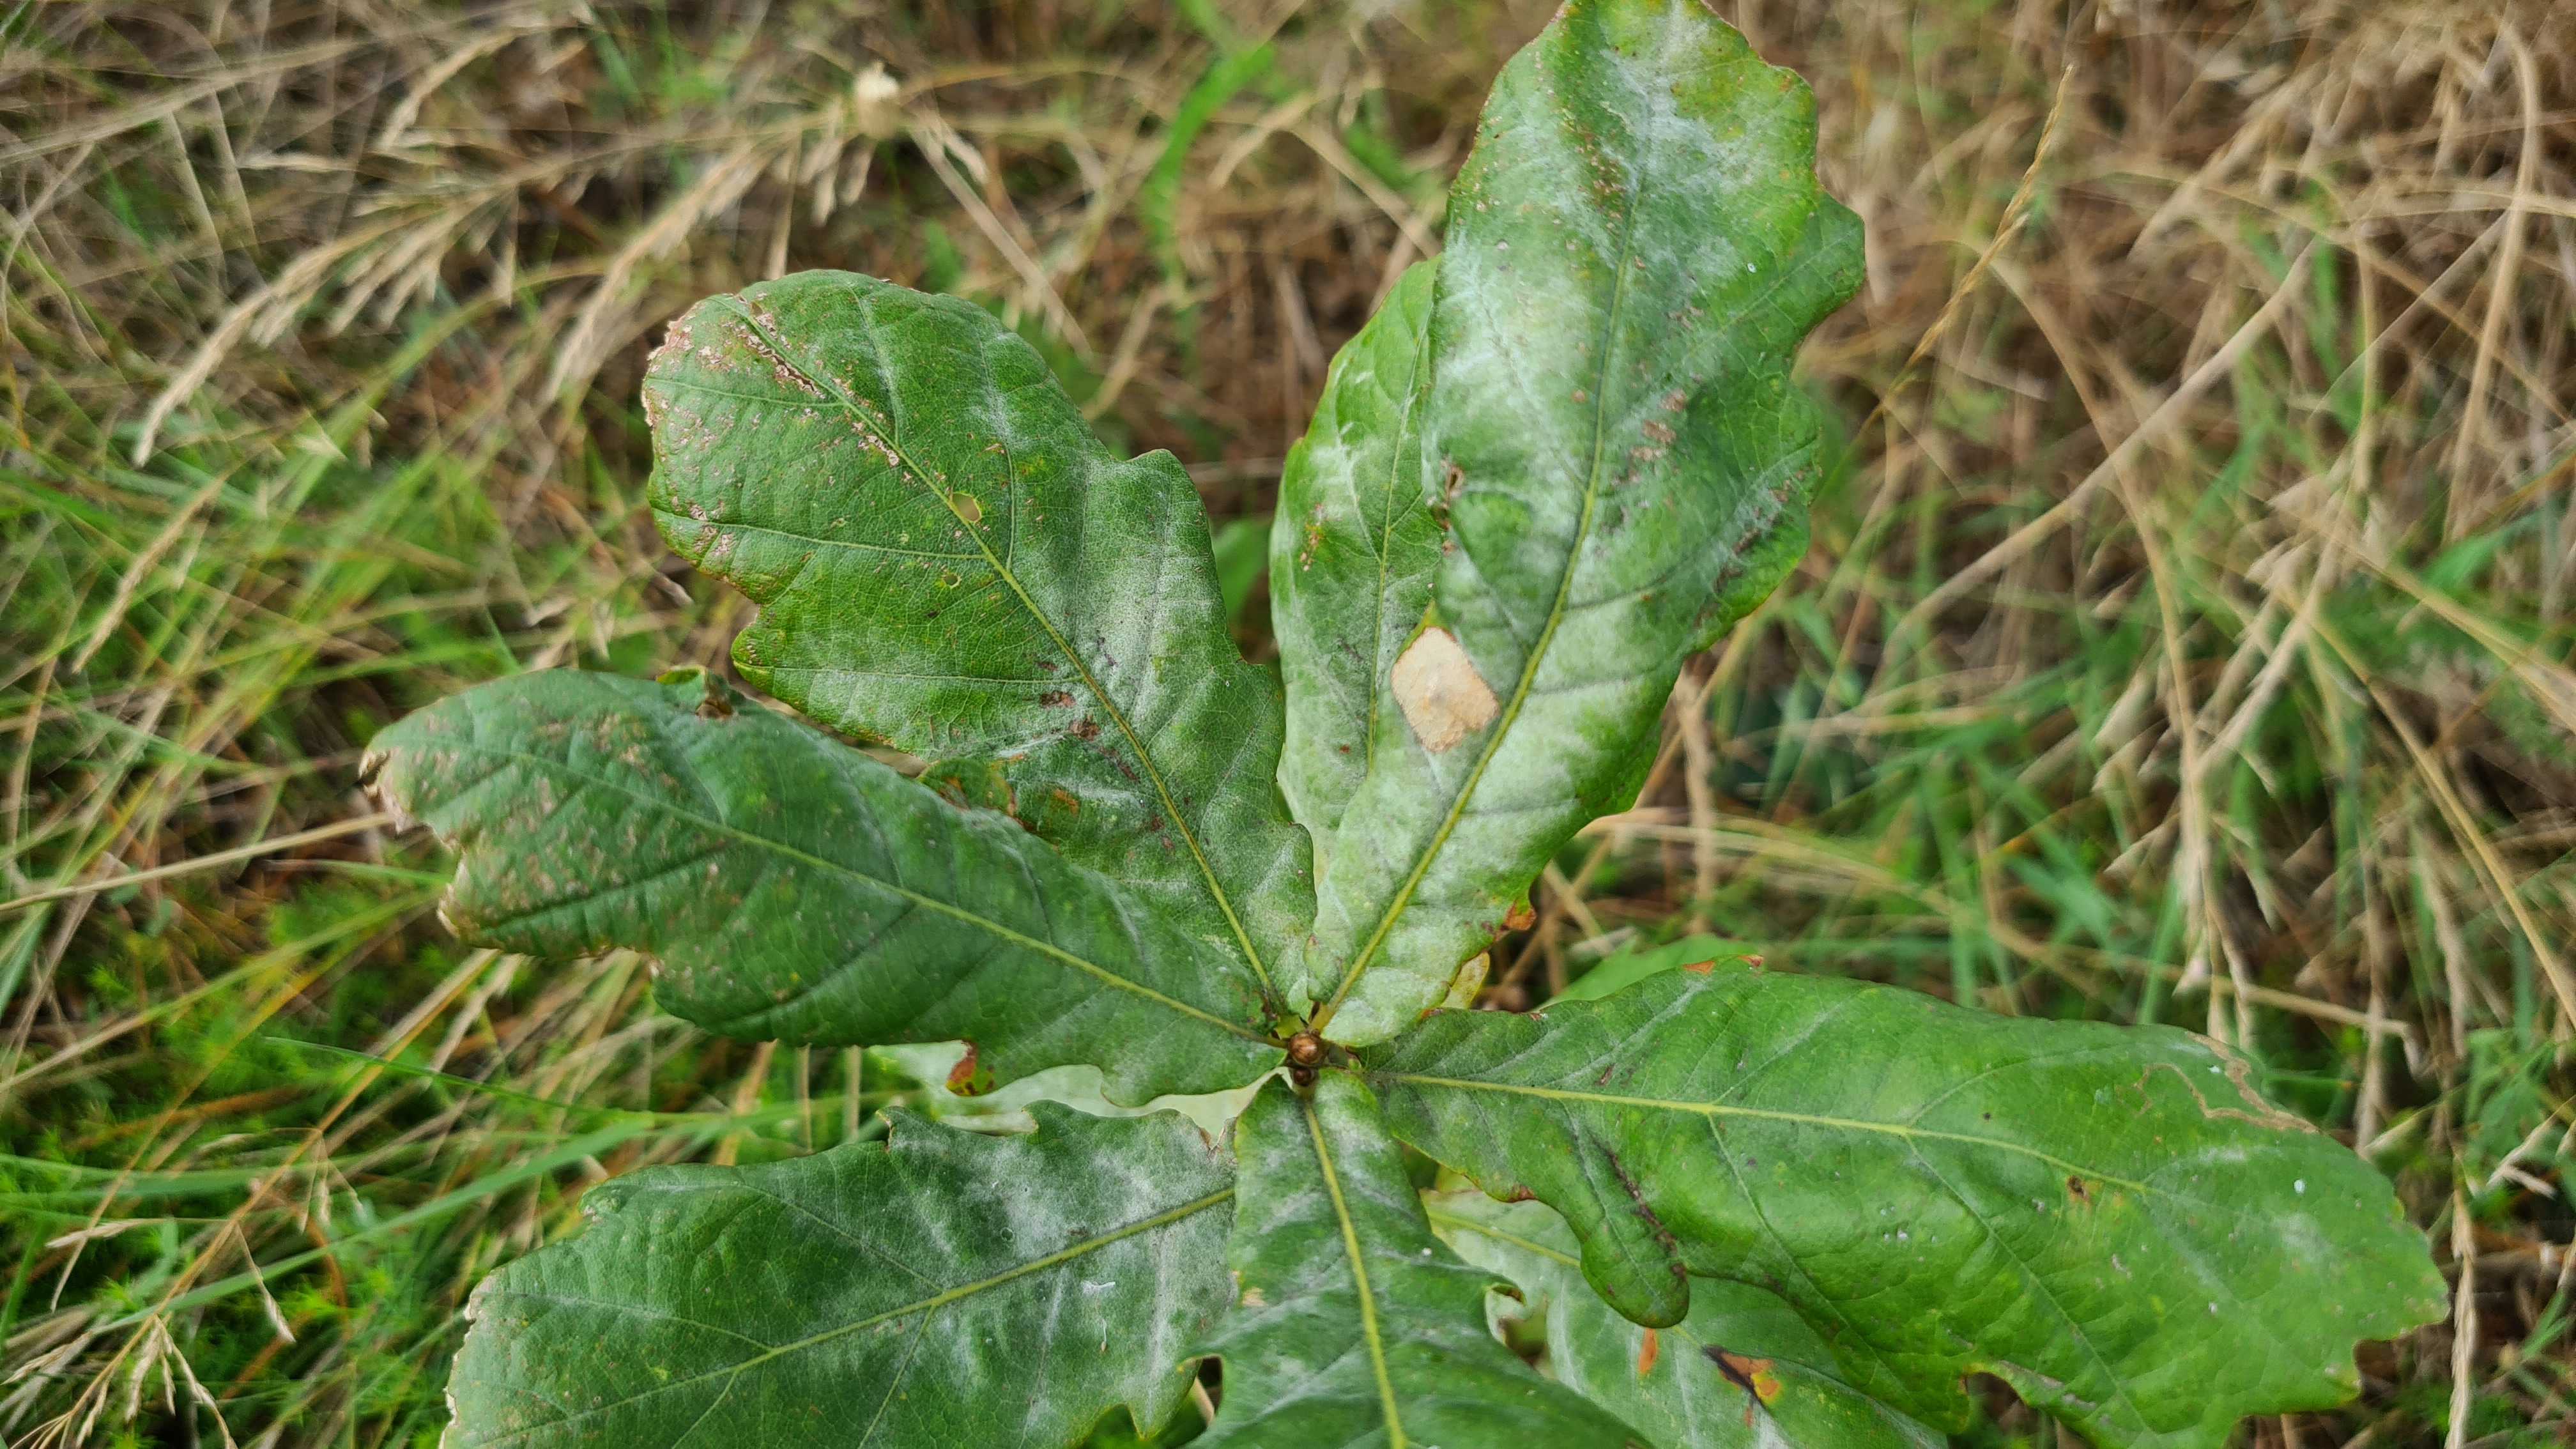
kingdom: Fungi
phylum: Ascomycota
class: Leotiomycetes
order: Helotiales
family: Erysiphaceae
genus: Erysiphe
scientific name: Erysiphe alphitoides
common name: ege-meldug
